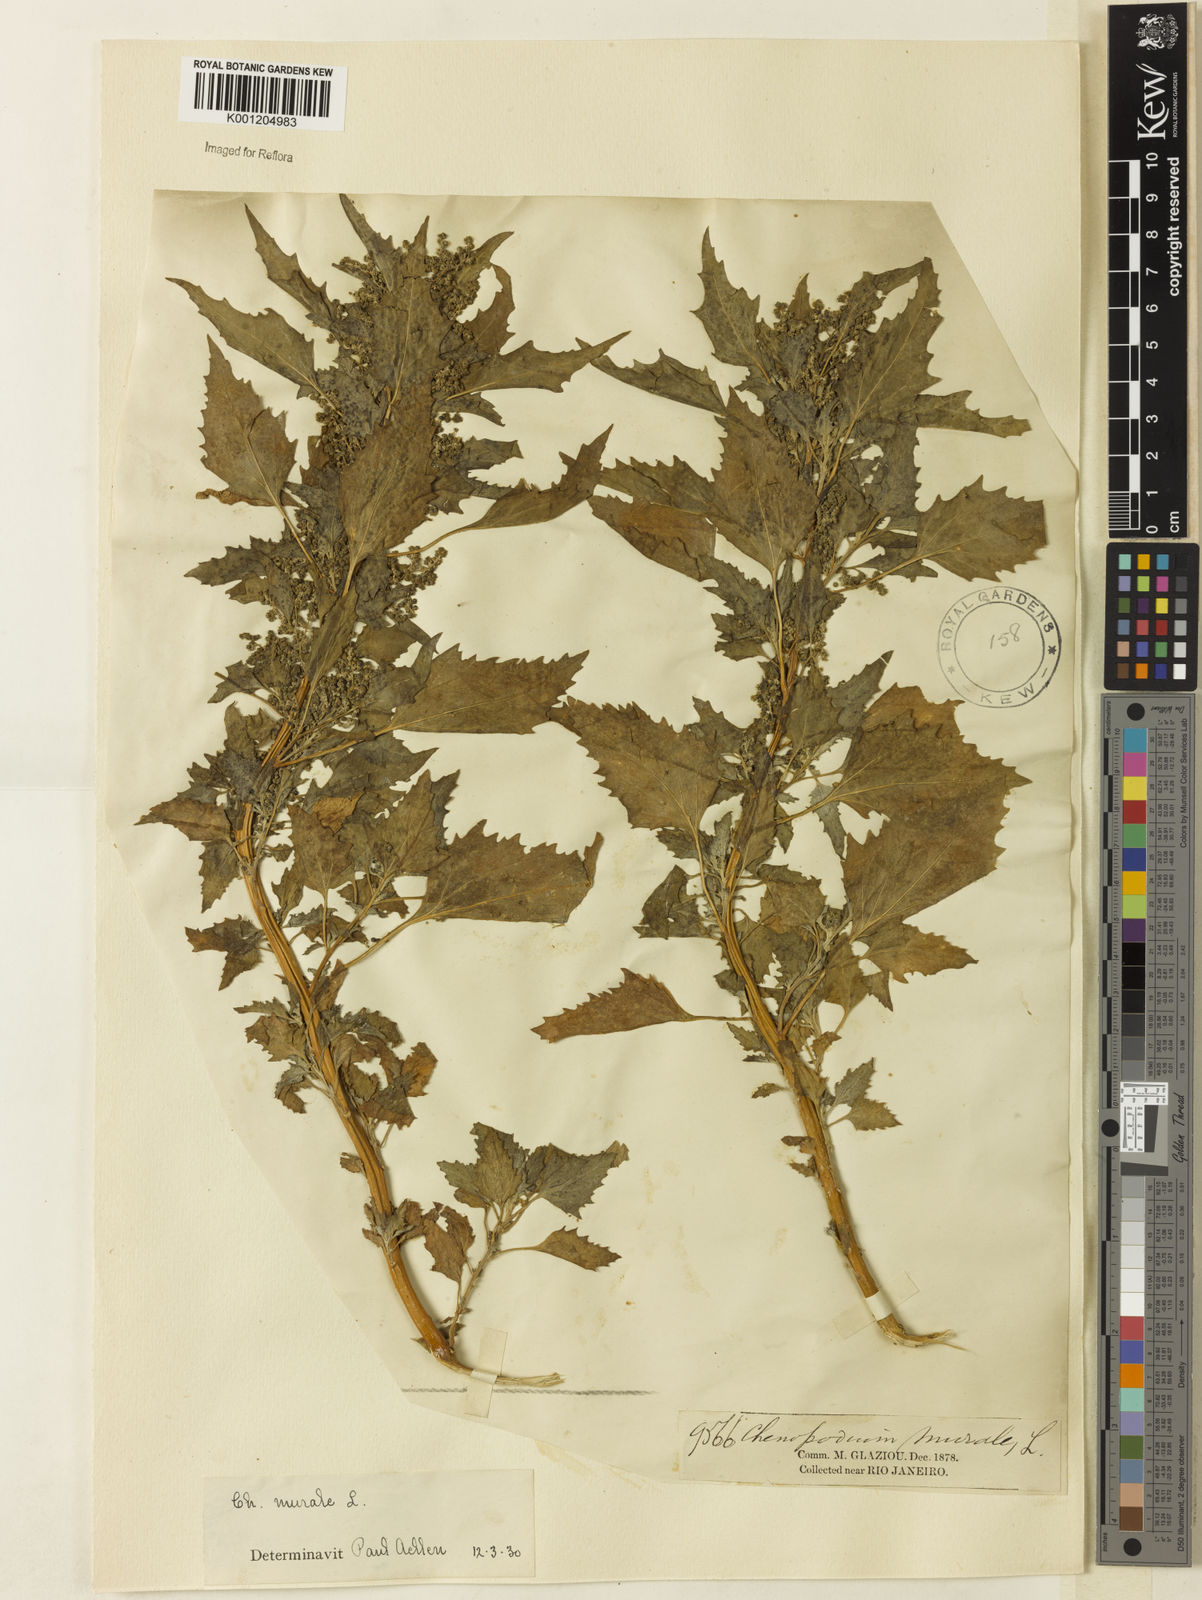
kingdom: Plantae
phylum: Tracheophyta
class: Magnoliopsida
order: Caryophyllales
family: Amaranthaceae
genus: Chenopodiastrum
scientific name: Chenopodiastrum murale
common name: Sowbane
